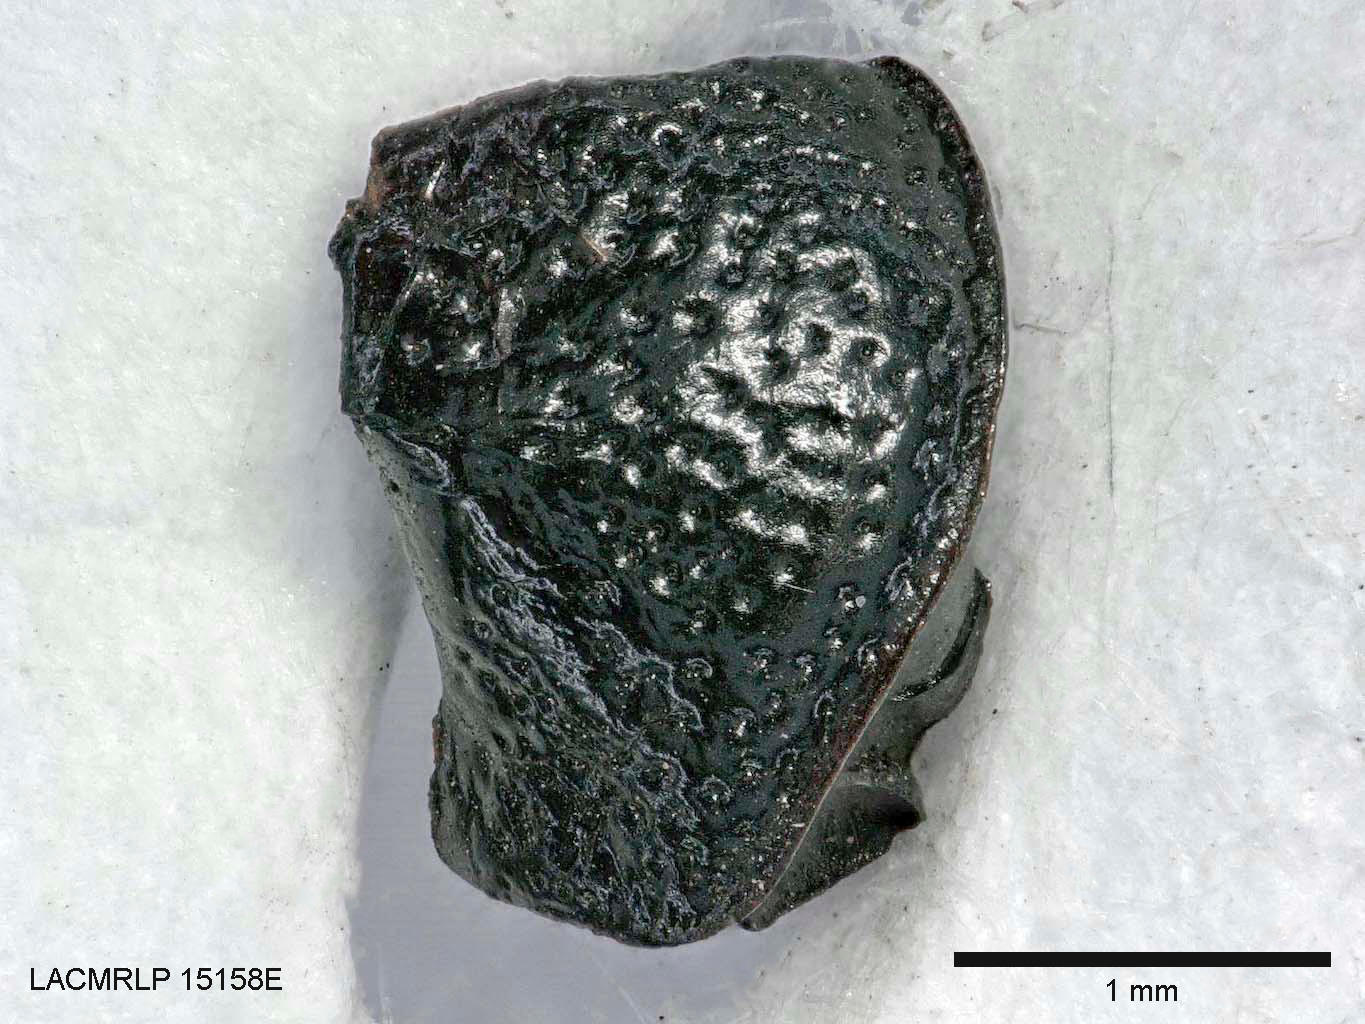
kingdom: Animalia
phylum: Arthropoda
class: Insecta
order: Coleoptera
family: Carabidae
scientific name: Carabidae
